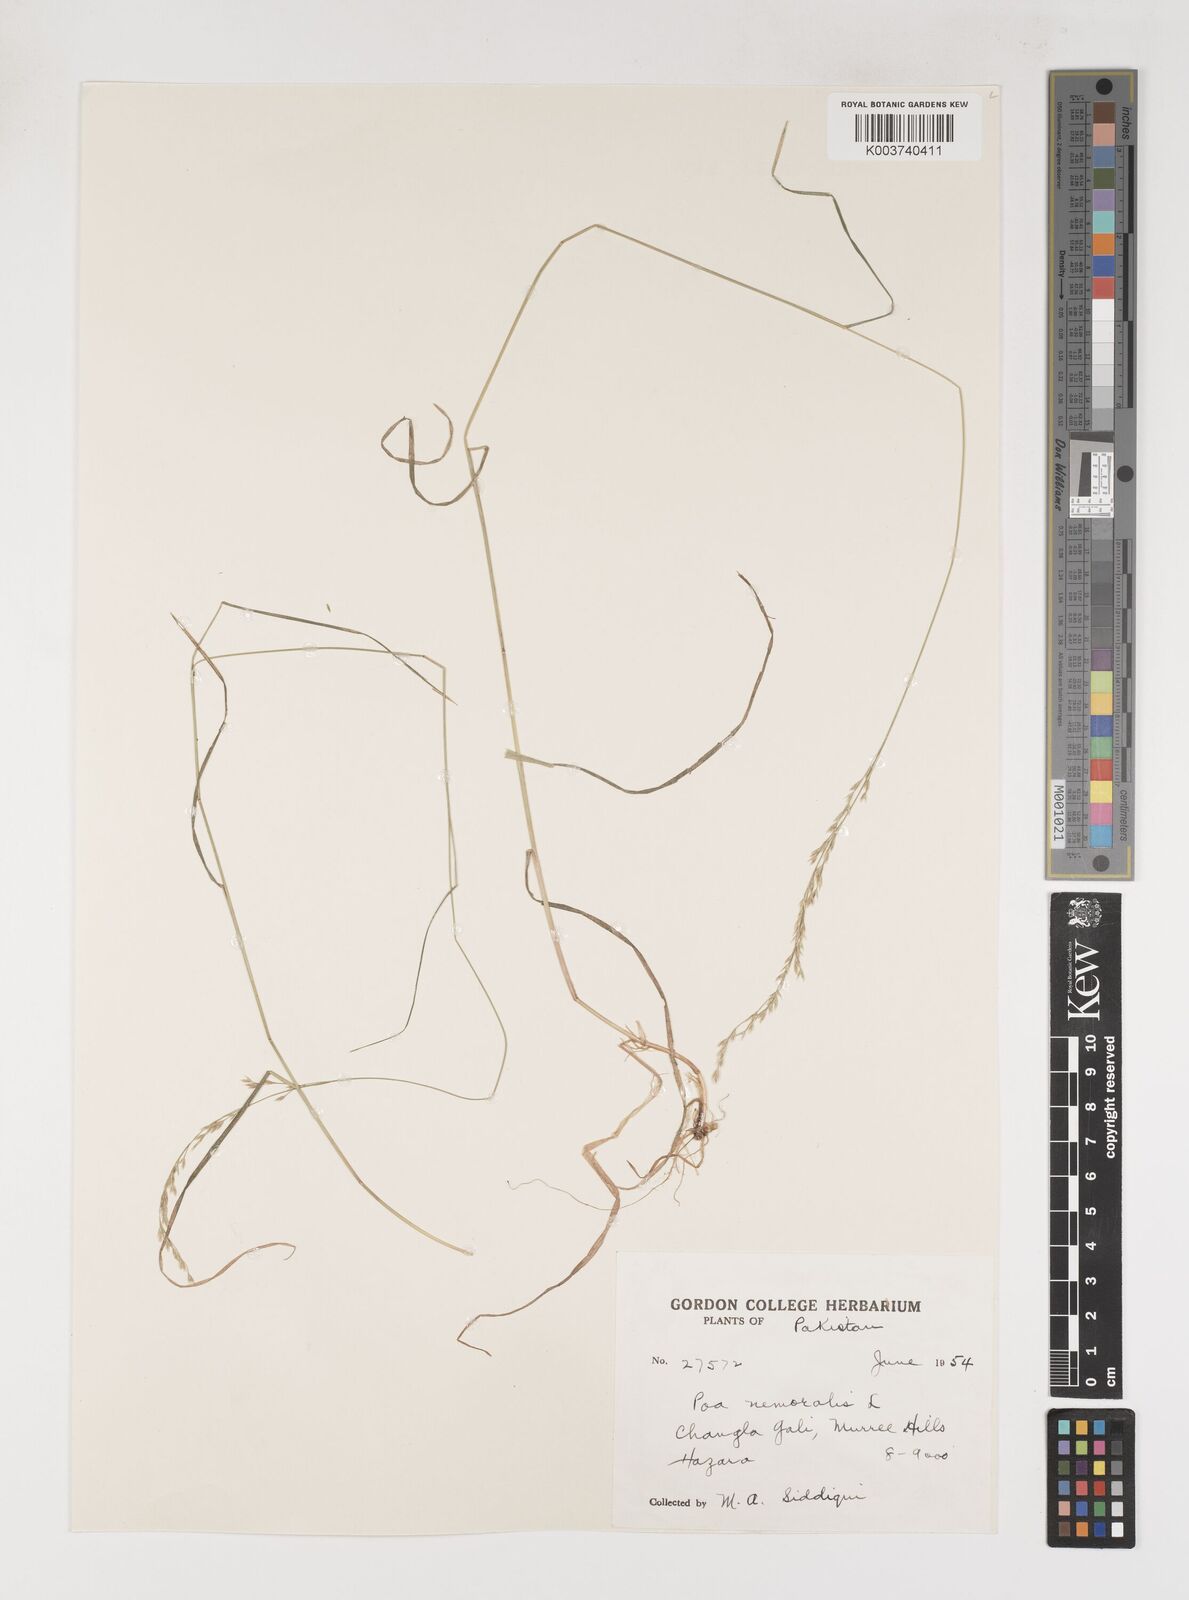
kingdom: Plantae
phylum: Tracheophyta
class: Liliopsida
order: Poales
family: Poaceae
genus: Poa
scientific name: Poa nemoralis
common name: Wood bluegrass
